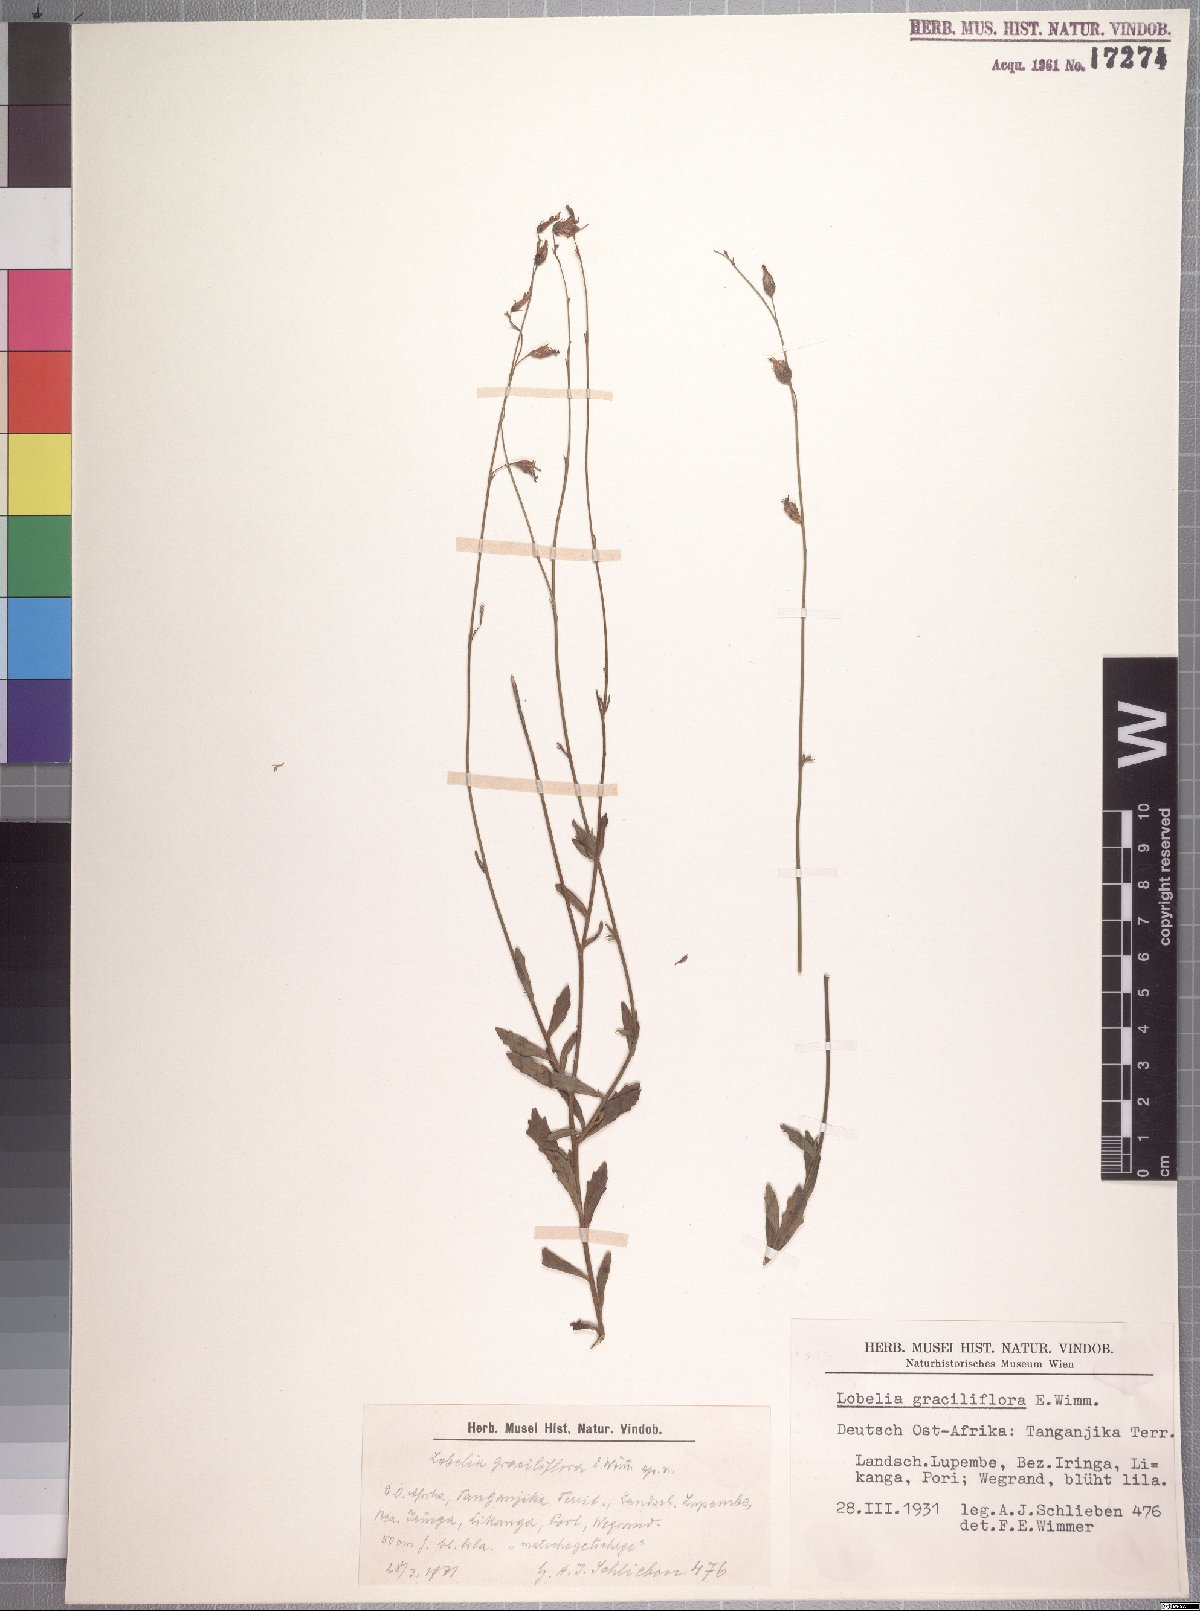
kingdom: Plantae
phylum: Tracheophyta
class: Magnoliopsida
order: Asterales
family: Campanulaceae
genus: Lobelia
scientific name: Lobelia goetzei
